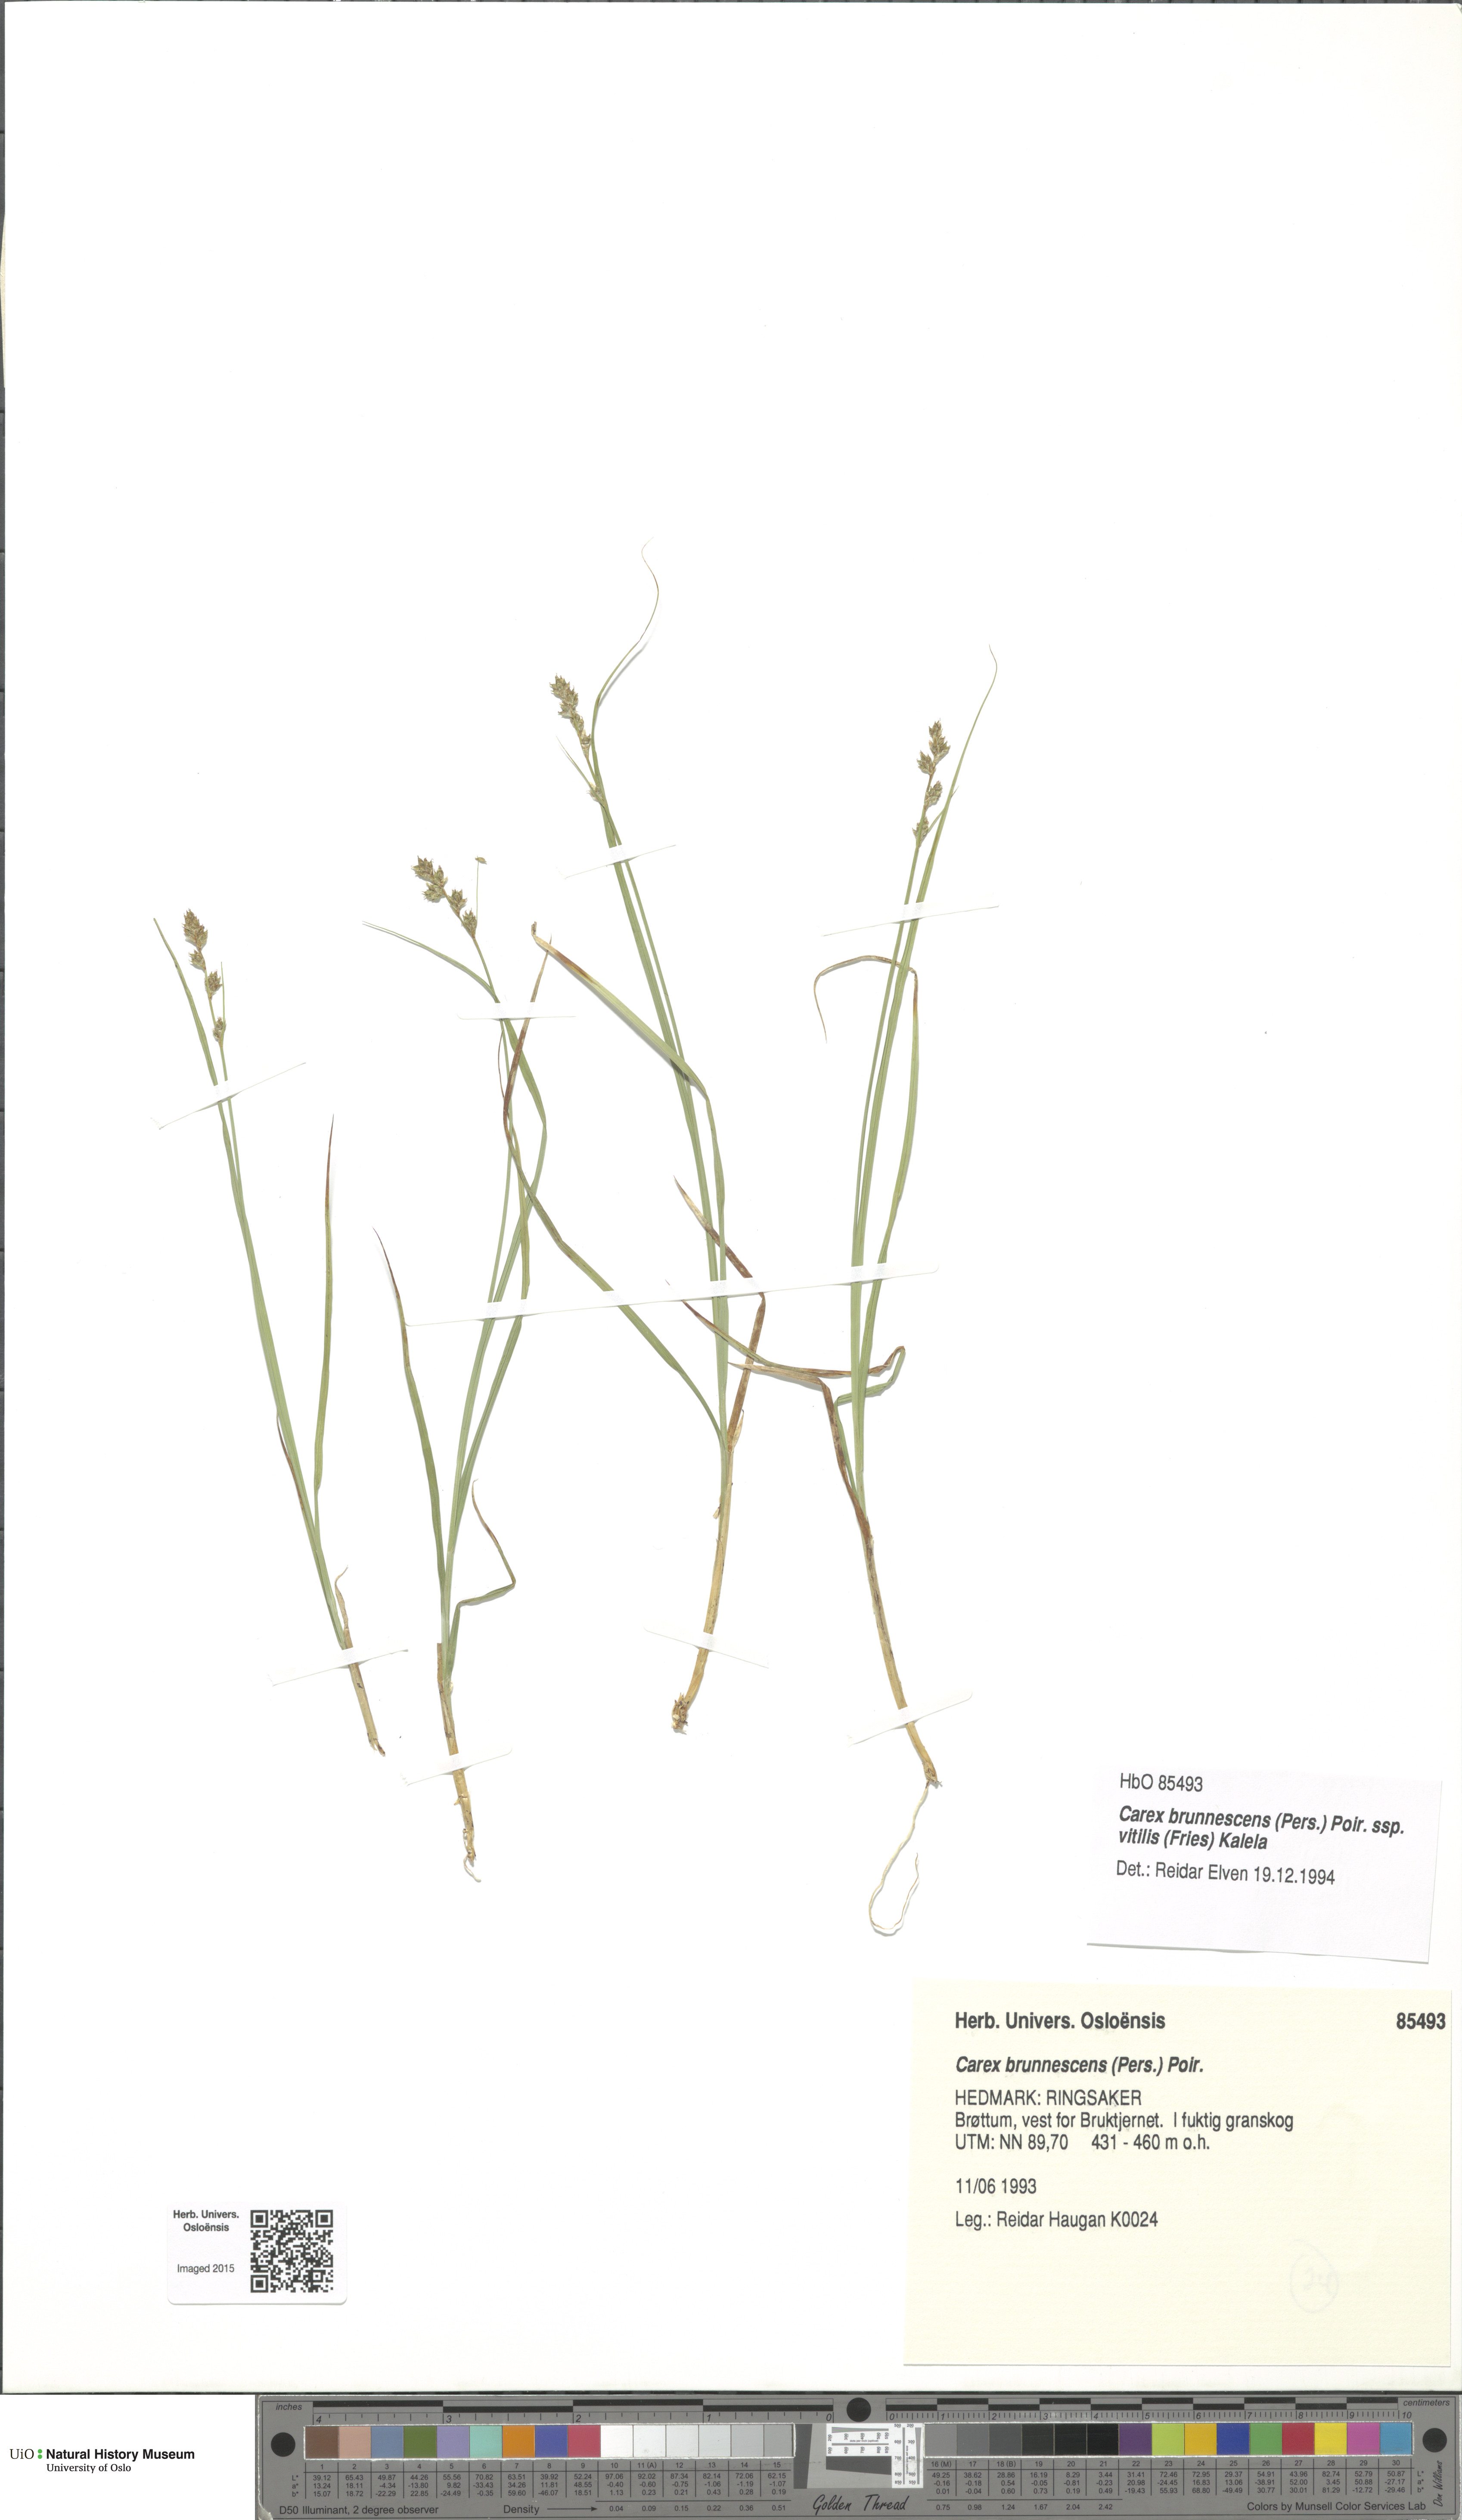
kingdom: Plantae
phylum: Tracheophyta
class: Liliopsida
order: Poales
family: Cyperaceae
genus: Carex
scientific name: Carex brunnescens
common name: Brown sedge
